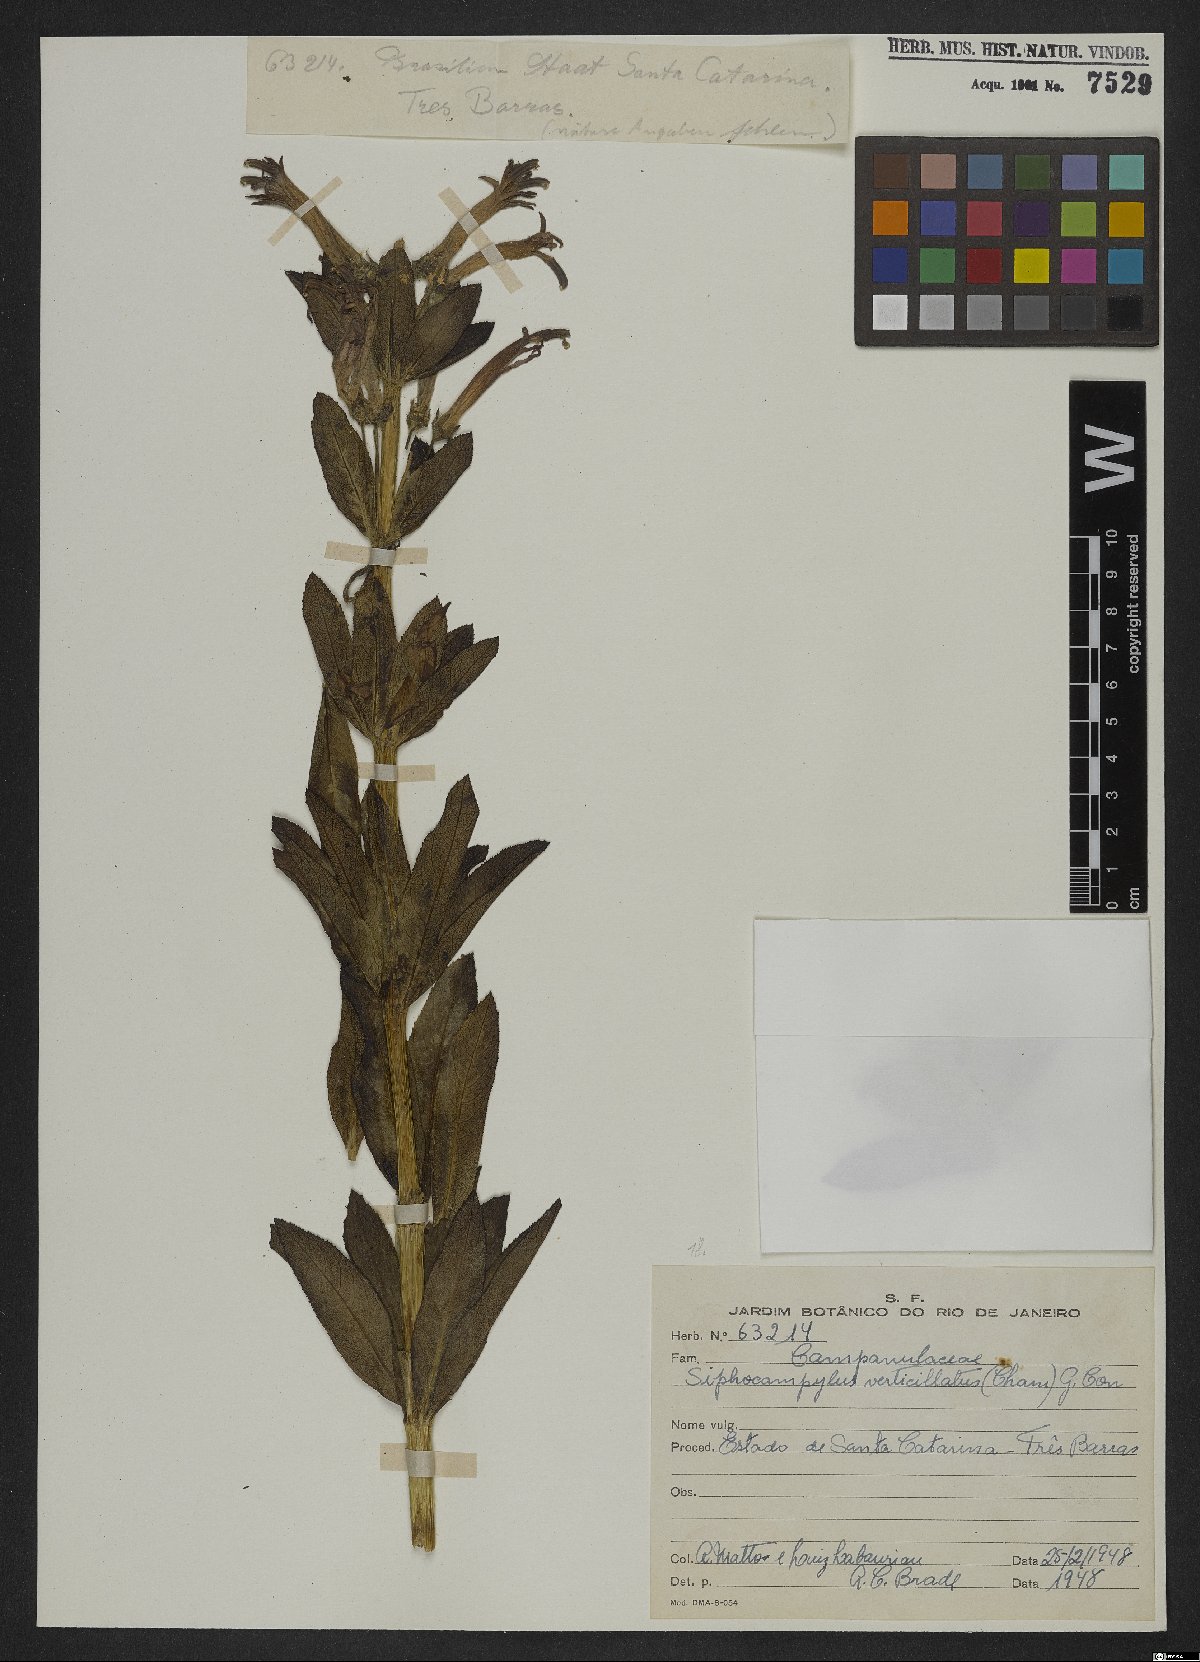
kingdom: Plantae
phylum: Tracheophyta
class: Magnoliopsida
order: Asterales
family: Campanulaceae
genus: Siphocampylus
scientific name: Siphocampylus verticillatus
